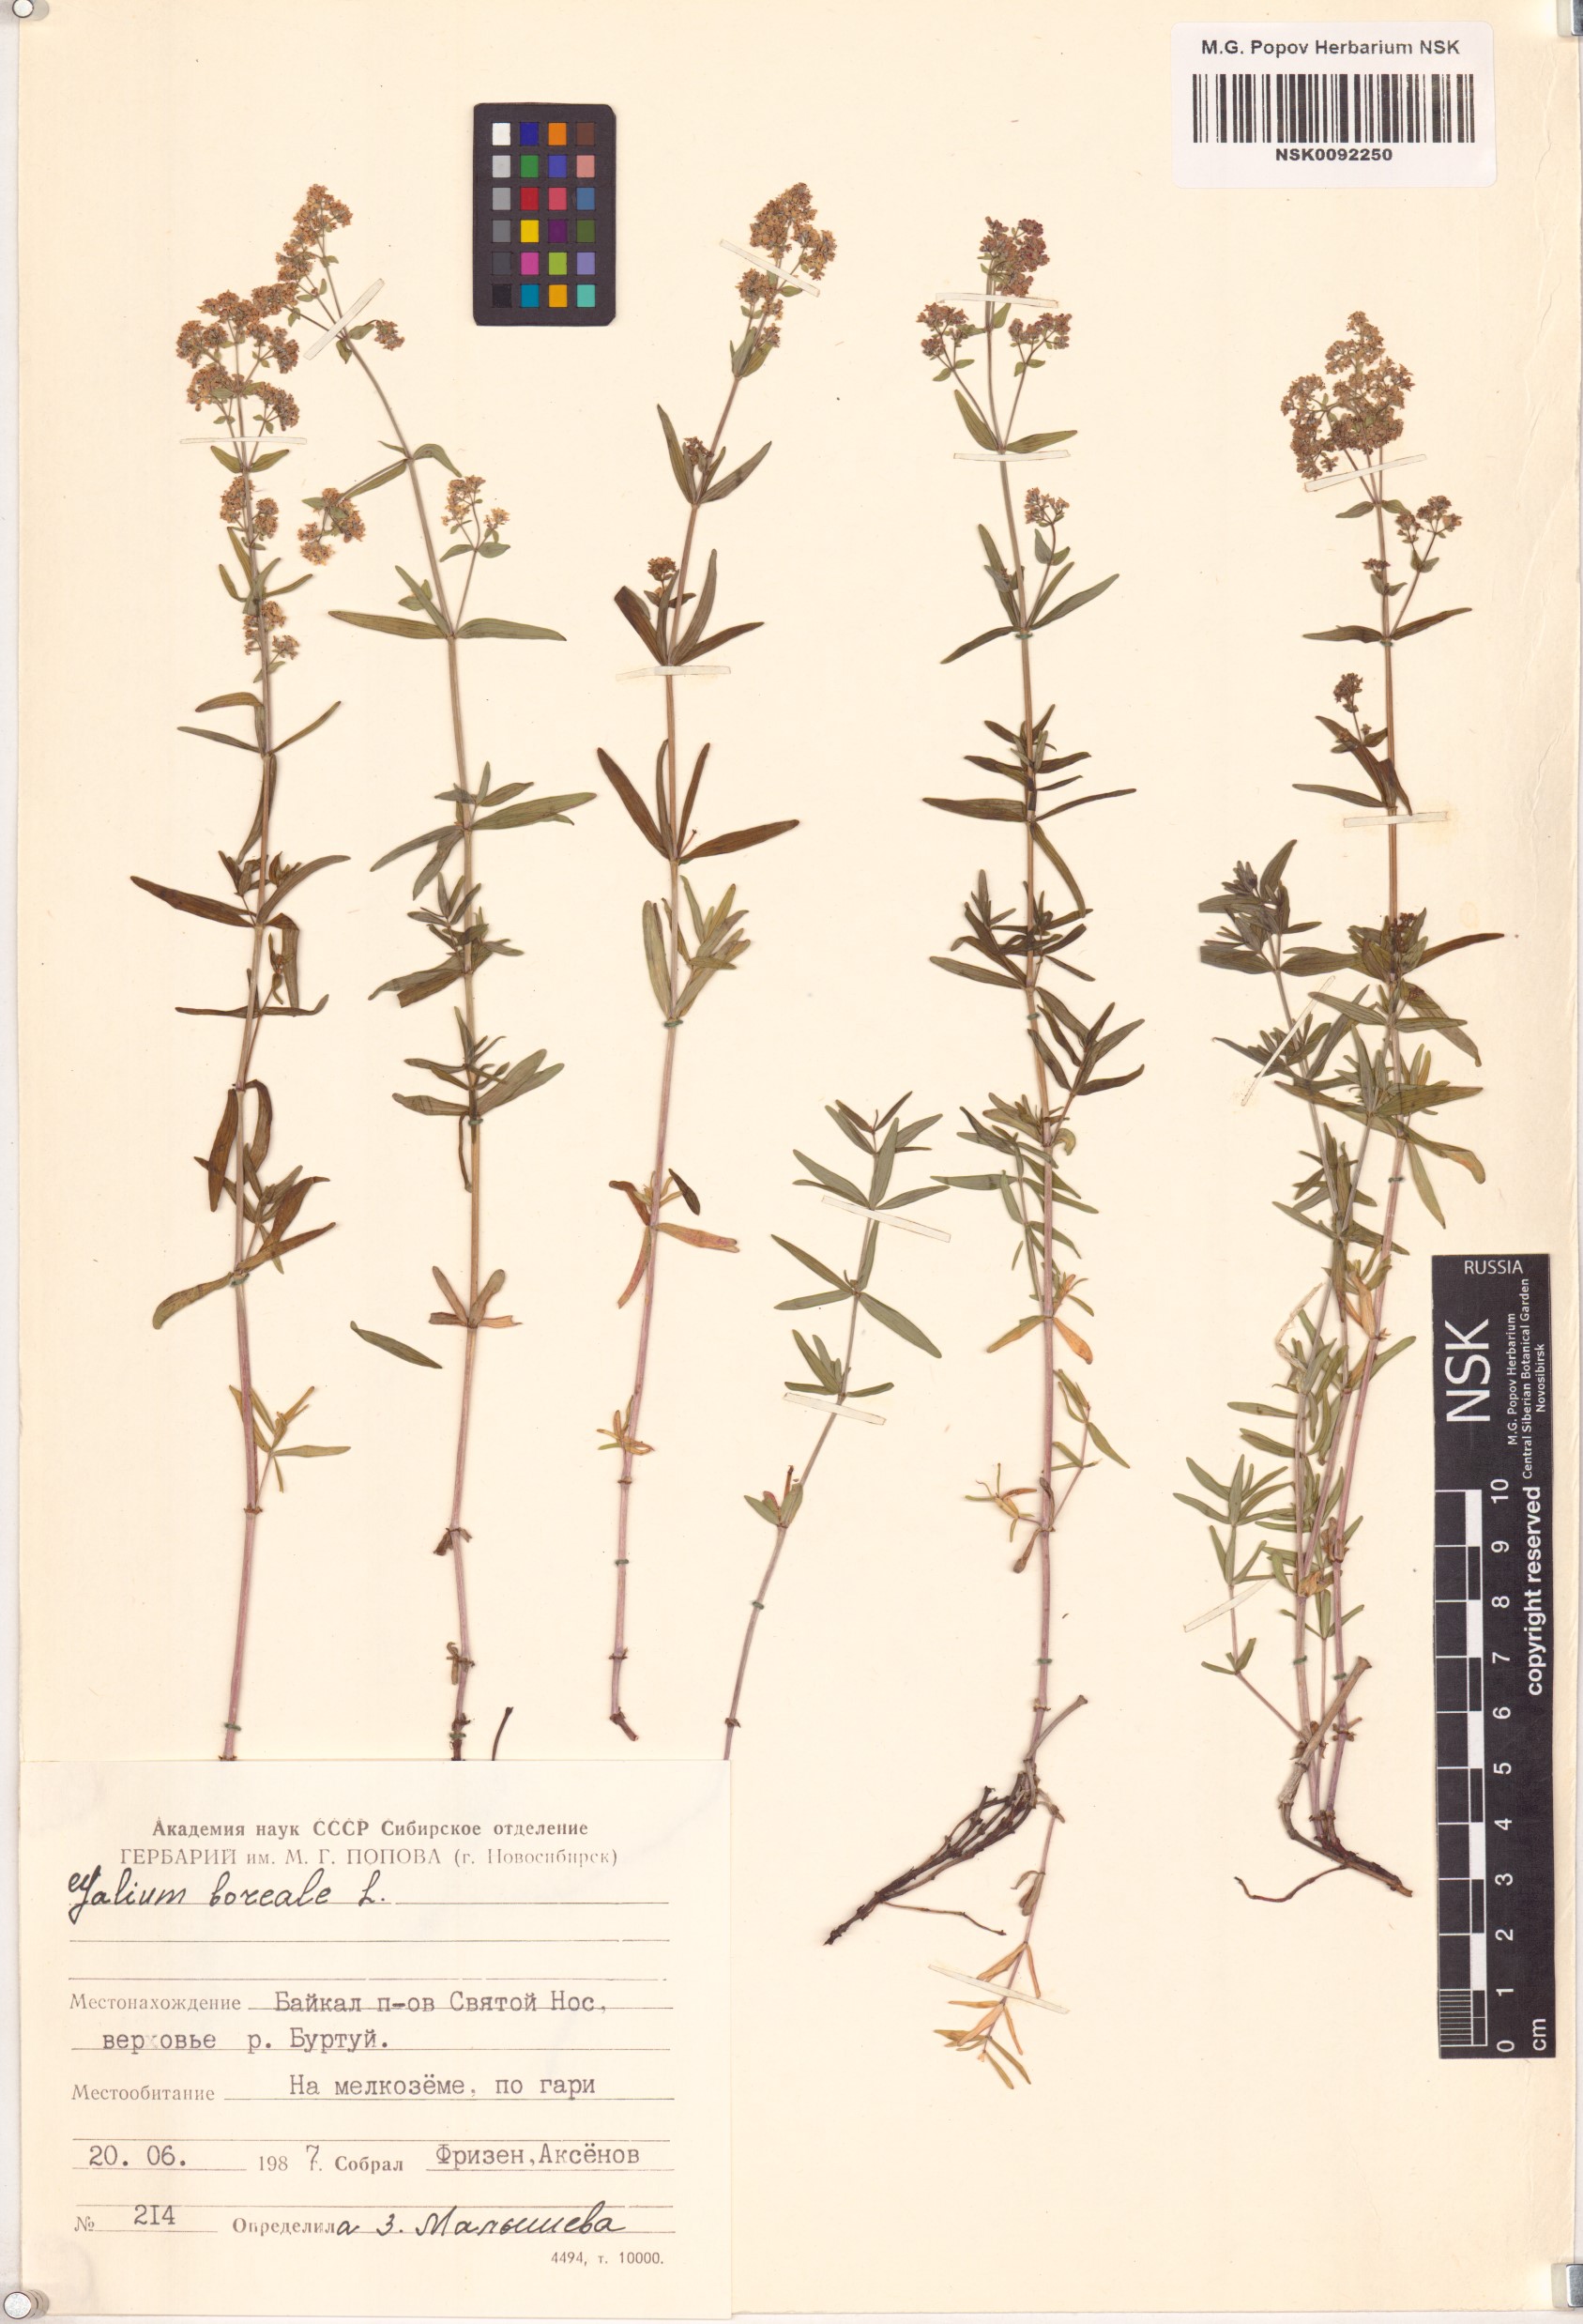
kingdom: Plantae
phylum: Tracheophyta
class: Magnoliopsida
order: Gentianales
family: Rubiaceae
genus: Galium
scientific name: Galium boreale
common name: Northern bedstraw
